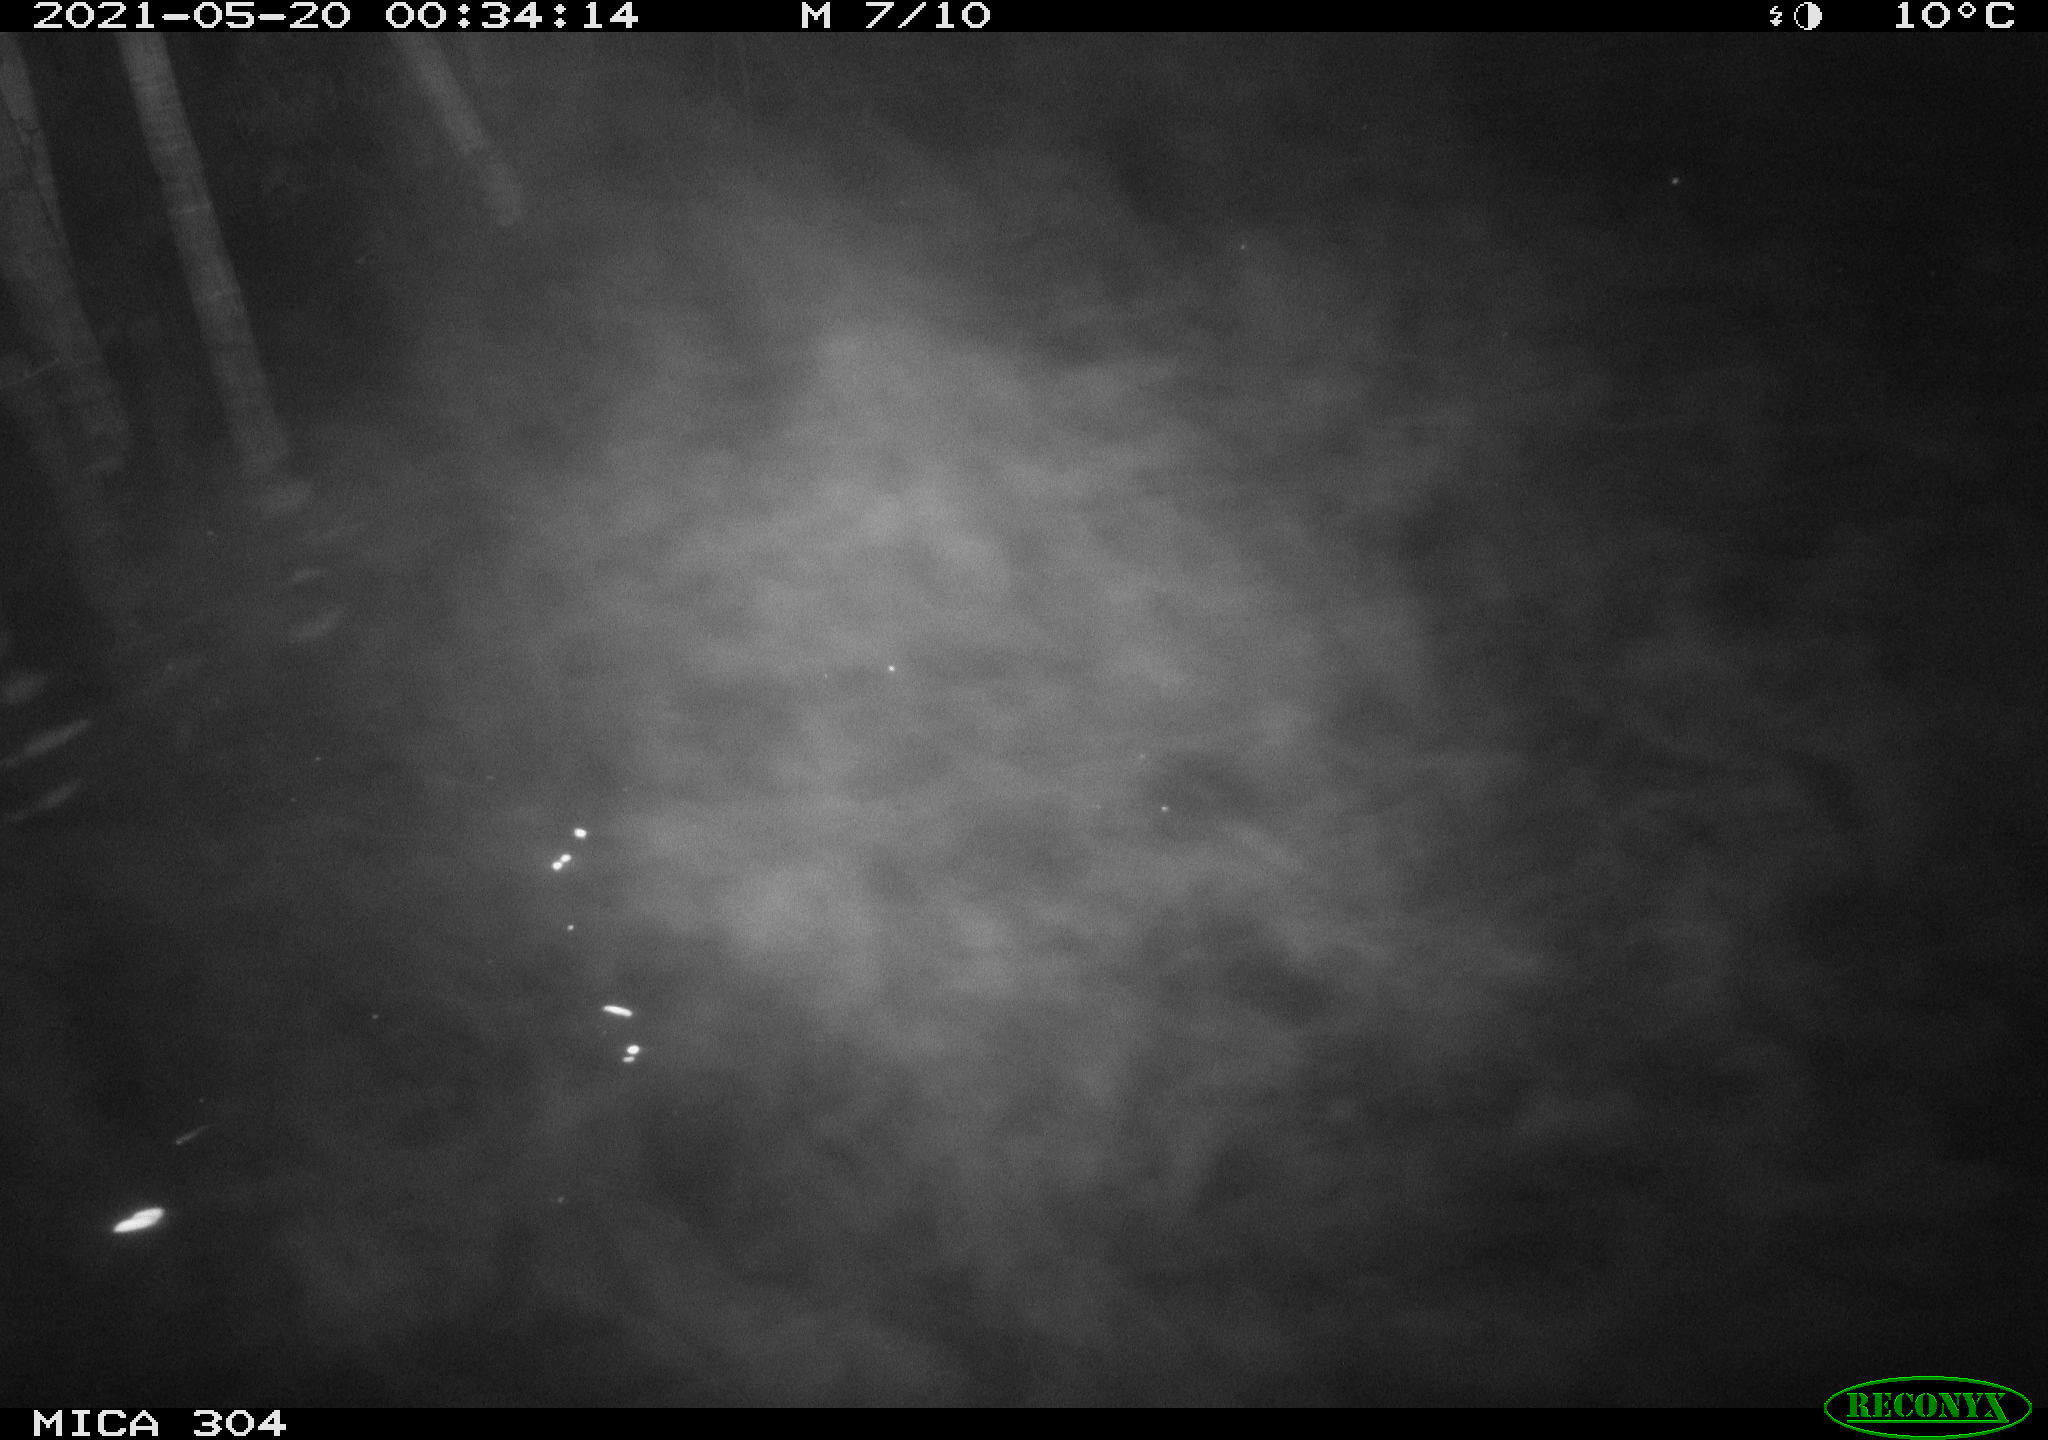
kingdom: Animalia
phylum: Chordata
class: Aves
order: Gruiformes
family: Rallidae
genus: Fulica
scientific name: Fulica atra
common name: Eurasian coot
